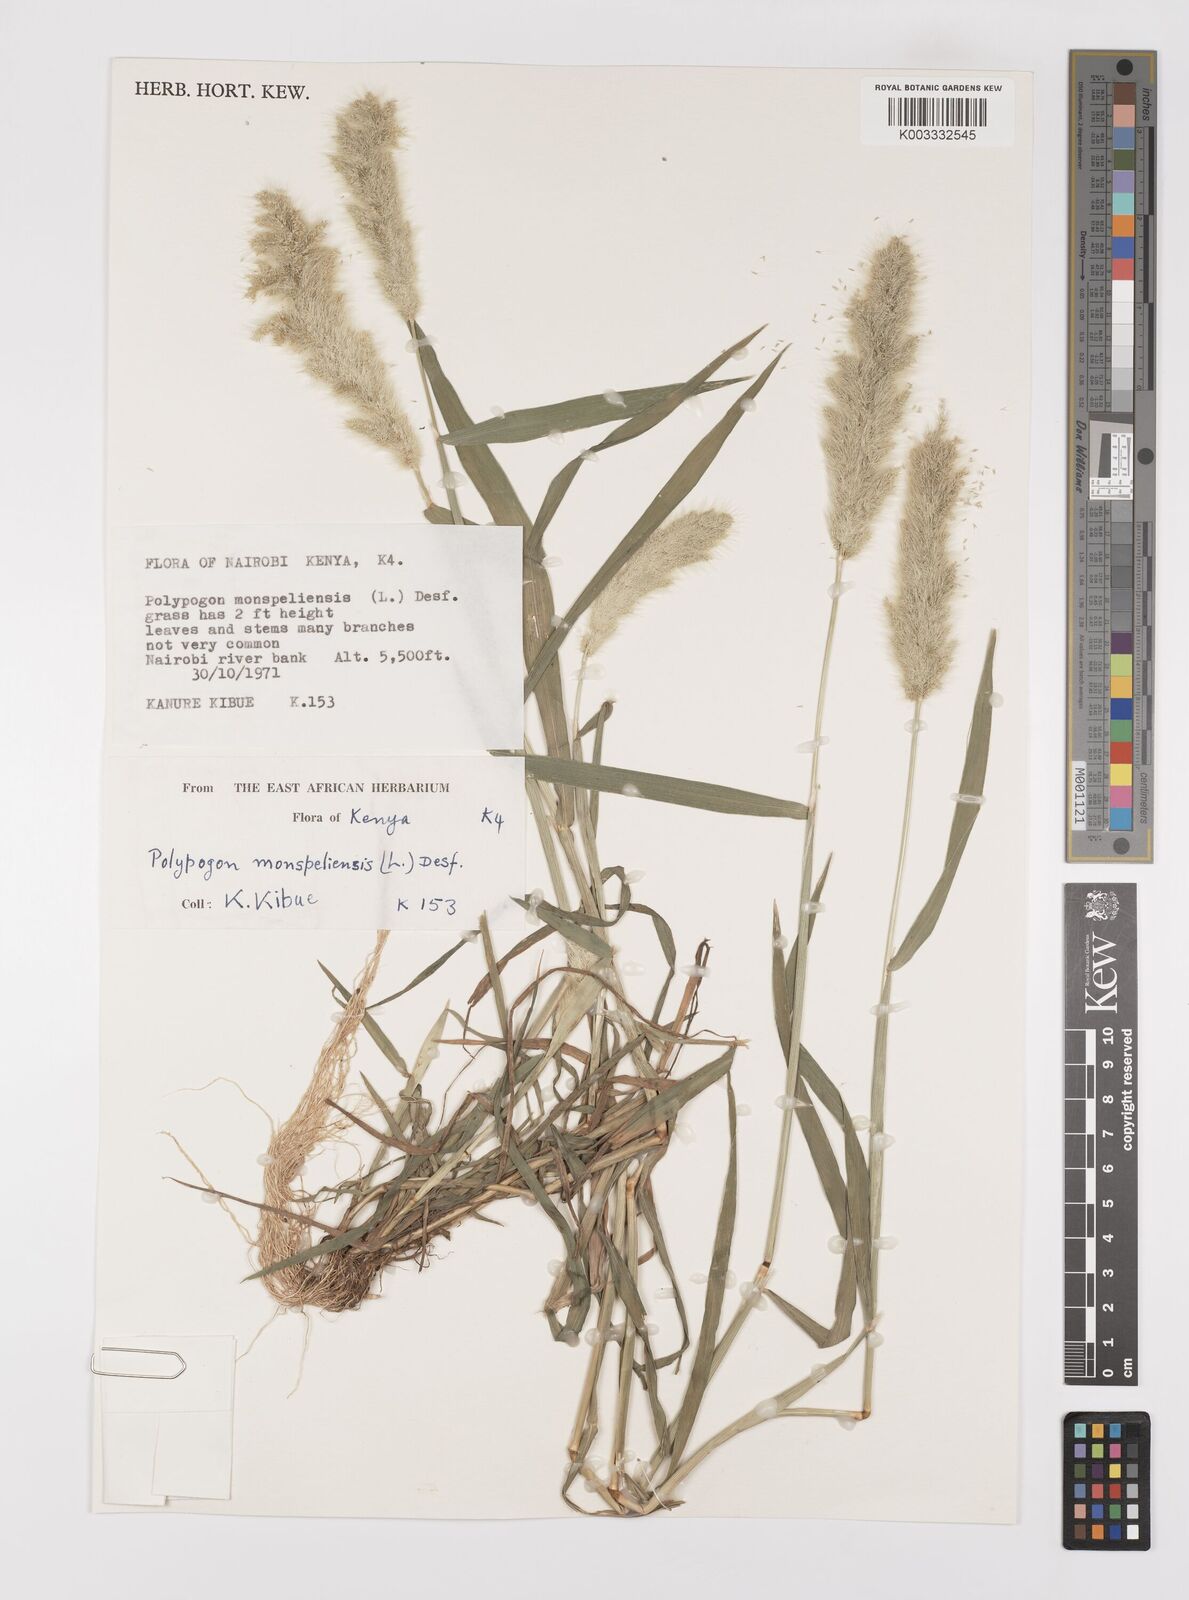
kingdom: Plantae
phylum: Tracheophyta
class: Liliopsida
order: Poales
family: Poaceae
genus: Polypogon
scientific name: Polypogon monspeliensis
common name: Annual rabbitsfoot grass
